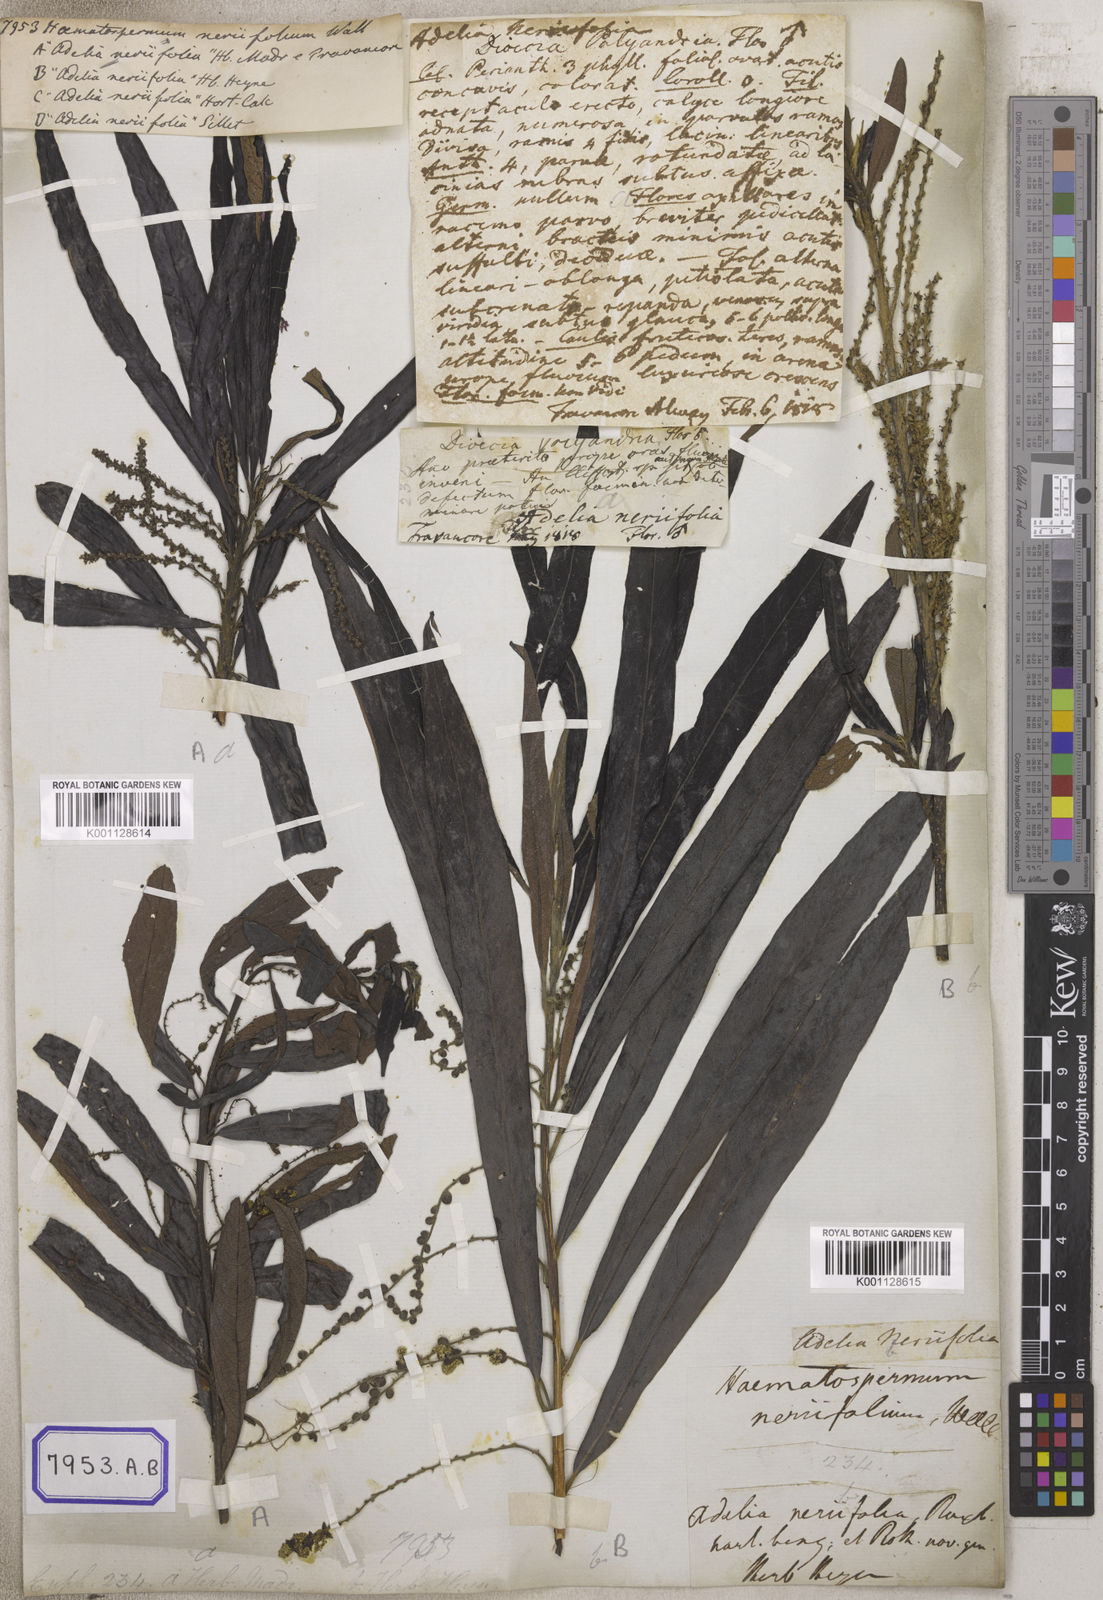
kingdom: Plantae
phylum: Tracheophyta
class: Magnoliopsida
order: Malpighiales
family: Euphorbiaceae
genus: Homonoia
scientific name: Homonoia
